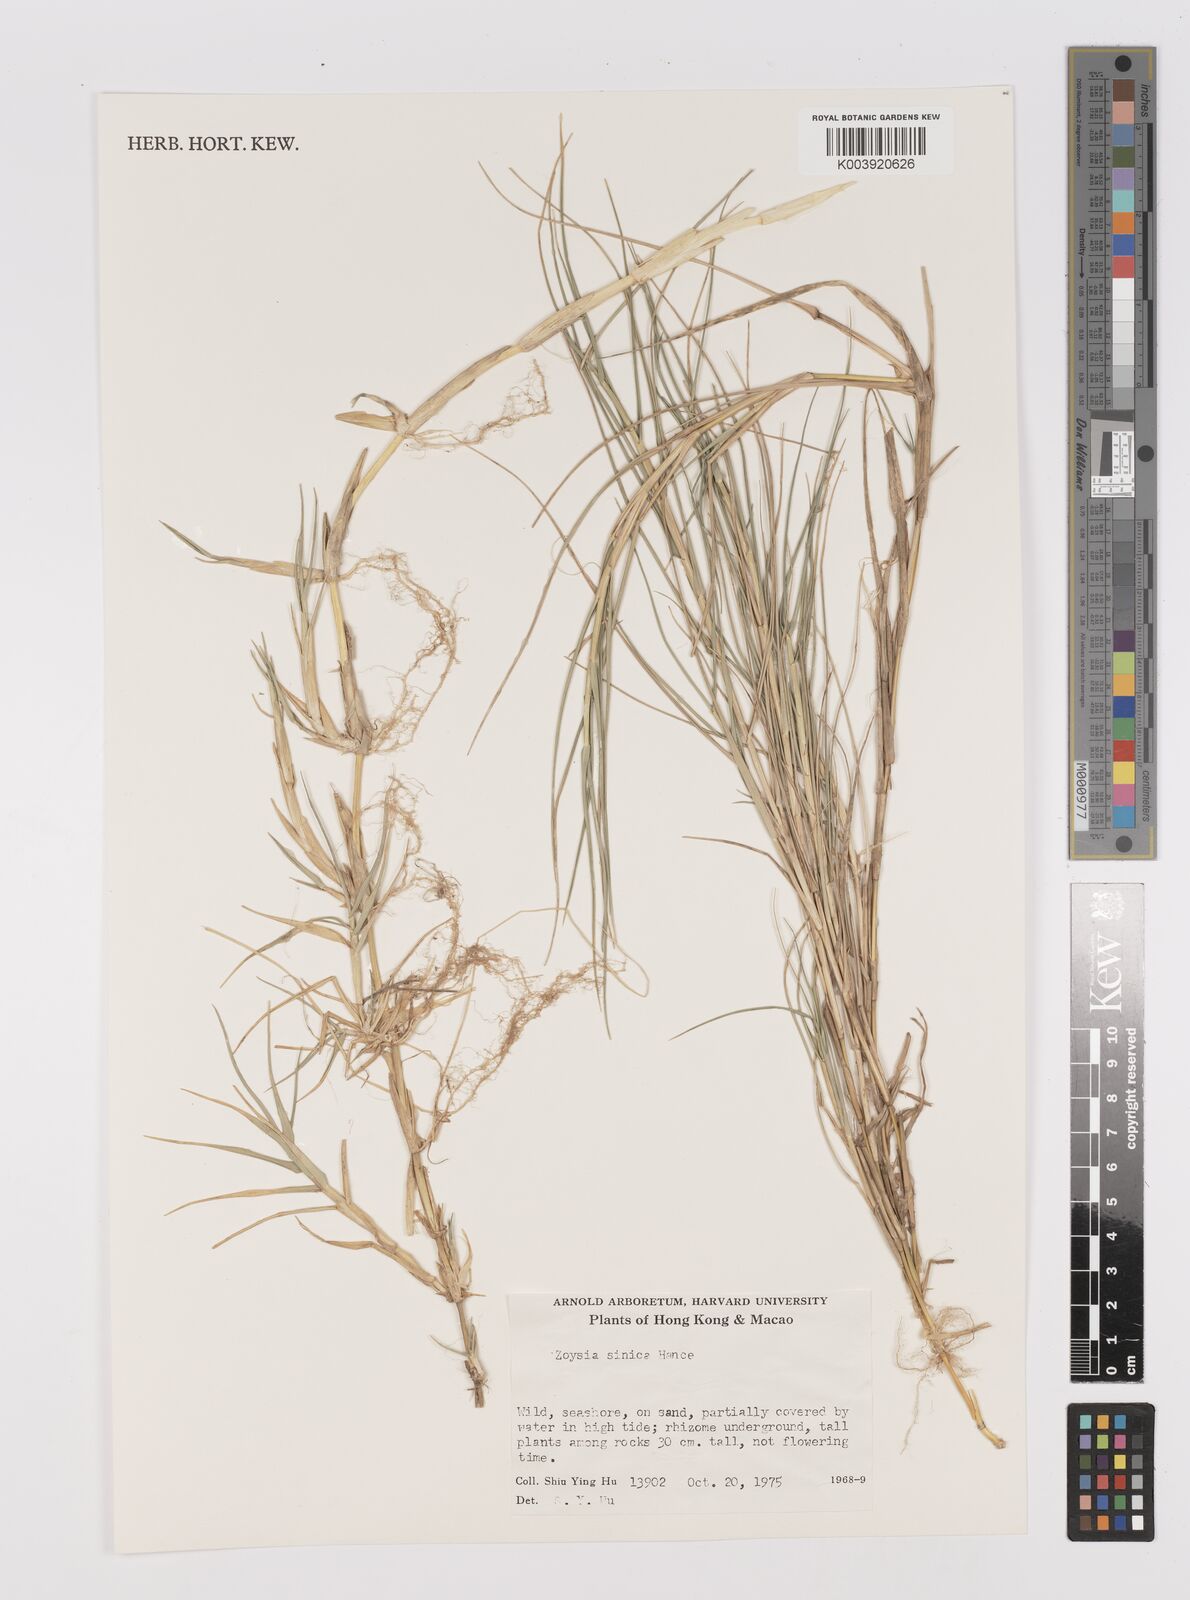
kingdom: Plantae
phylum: Tracheophyta
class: Liliopsida
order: Poales
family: Poaceae
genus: Zoysia
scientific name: Zoysia sinica
